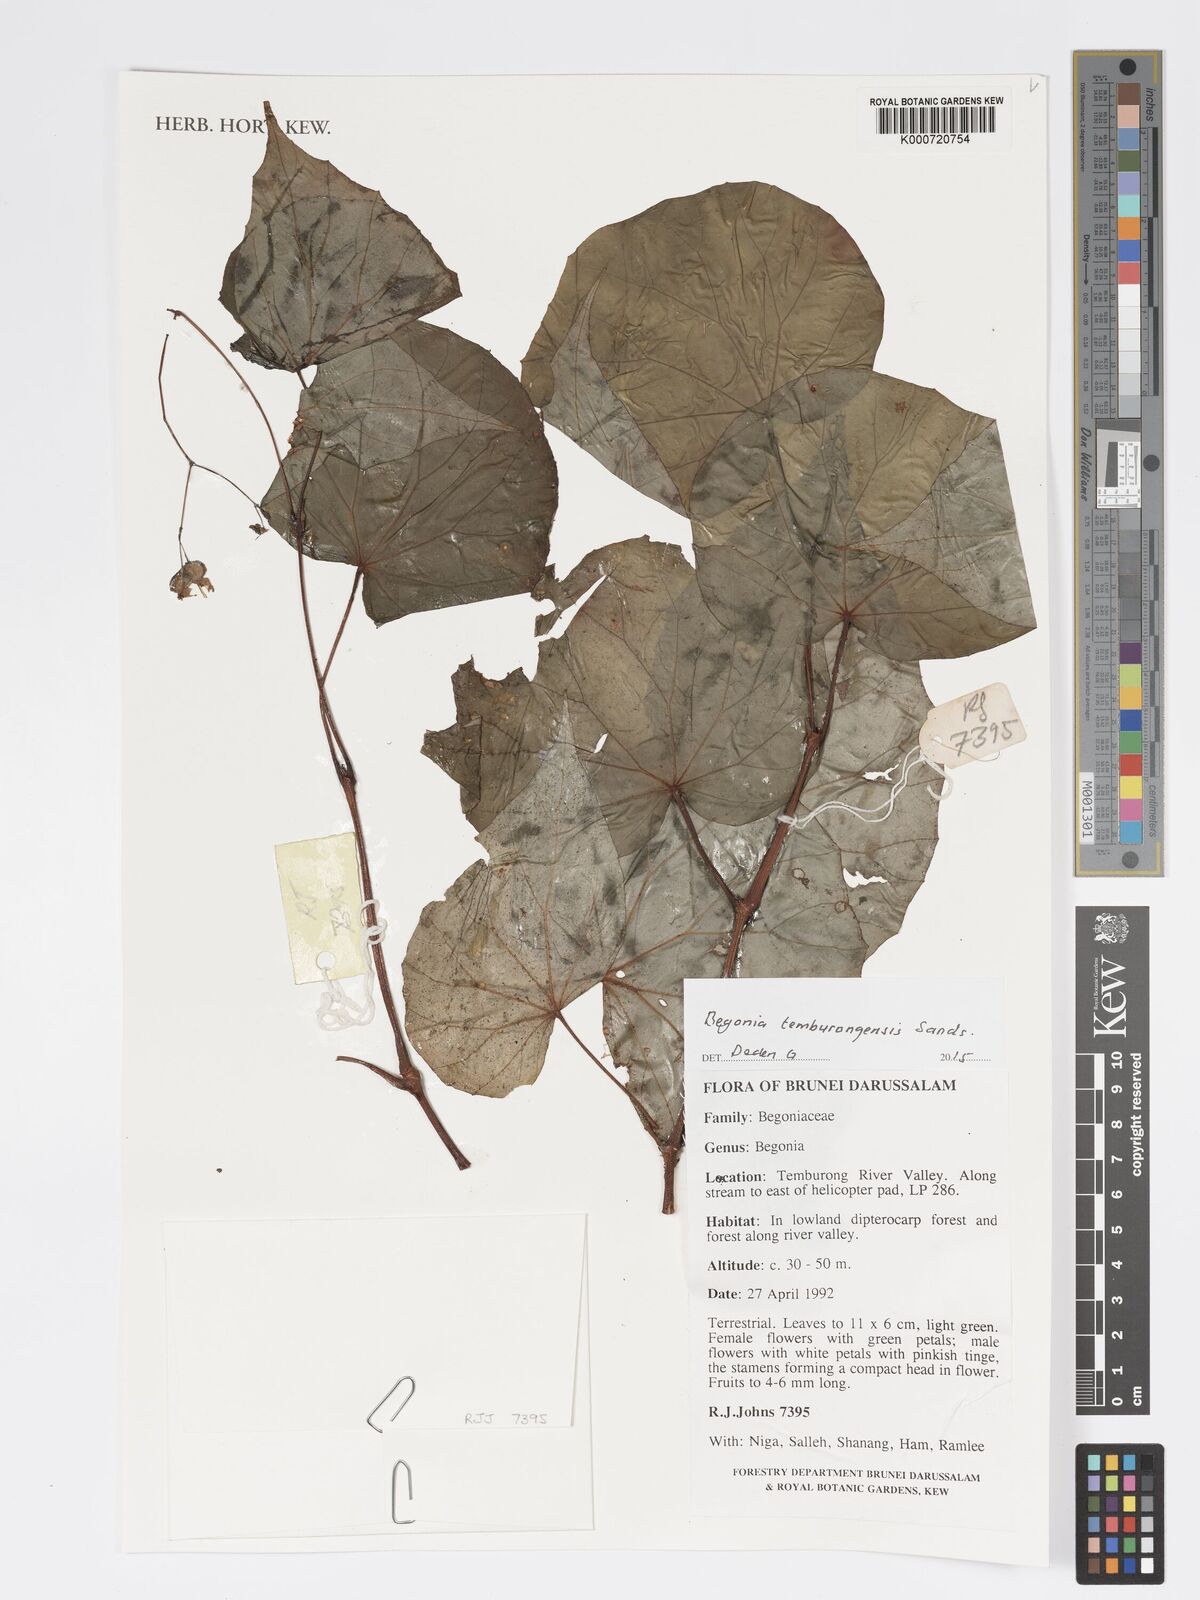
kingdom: Plantae
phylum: Tracheophyta
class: Magnoliopsida
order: Cucurbitales
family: Begoniaceae
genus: Begonia
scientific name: Begonia temburongensis
